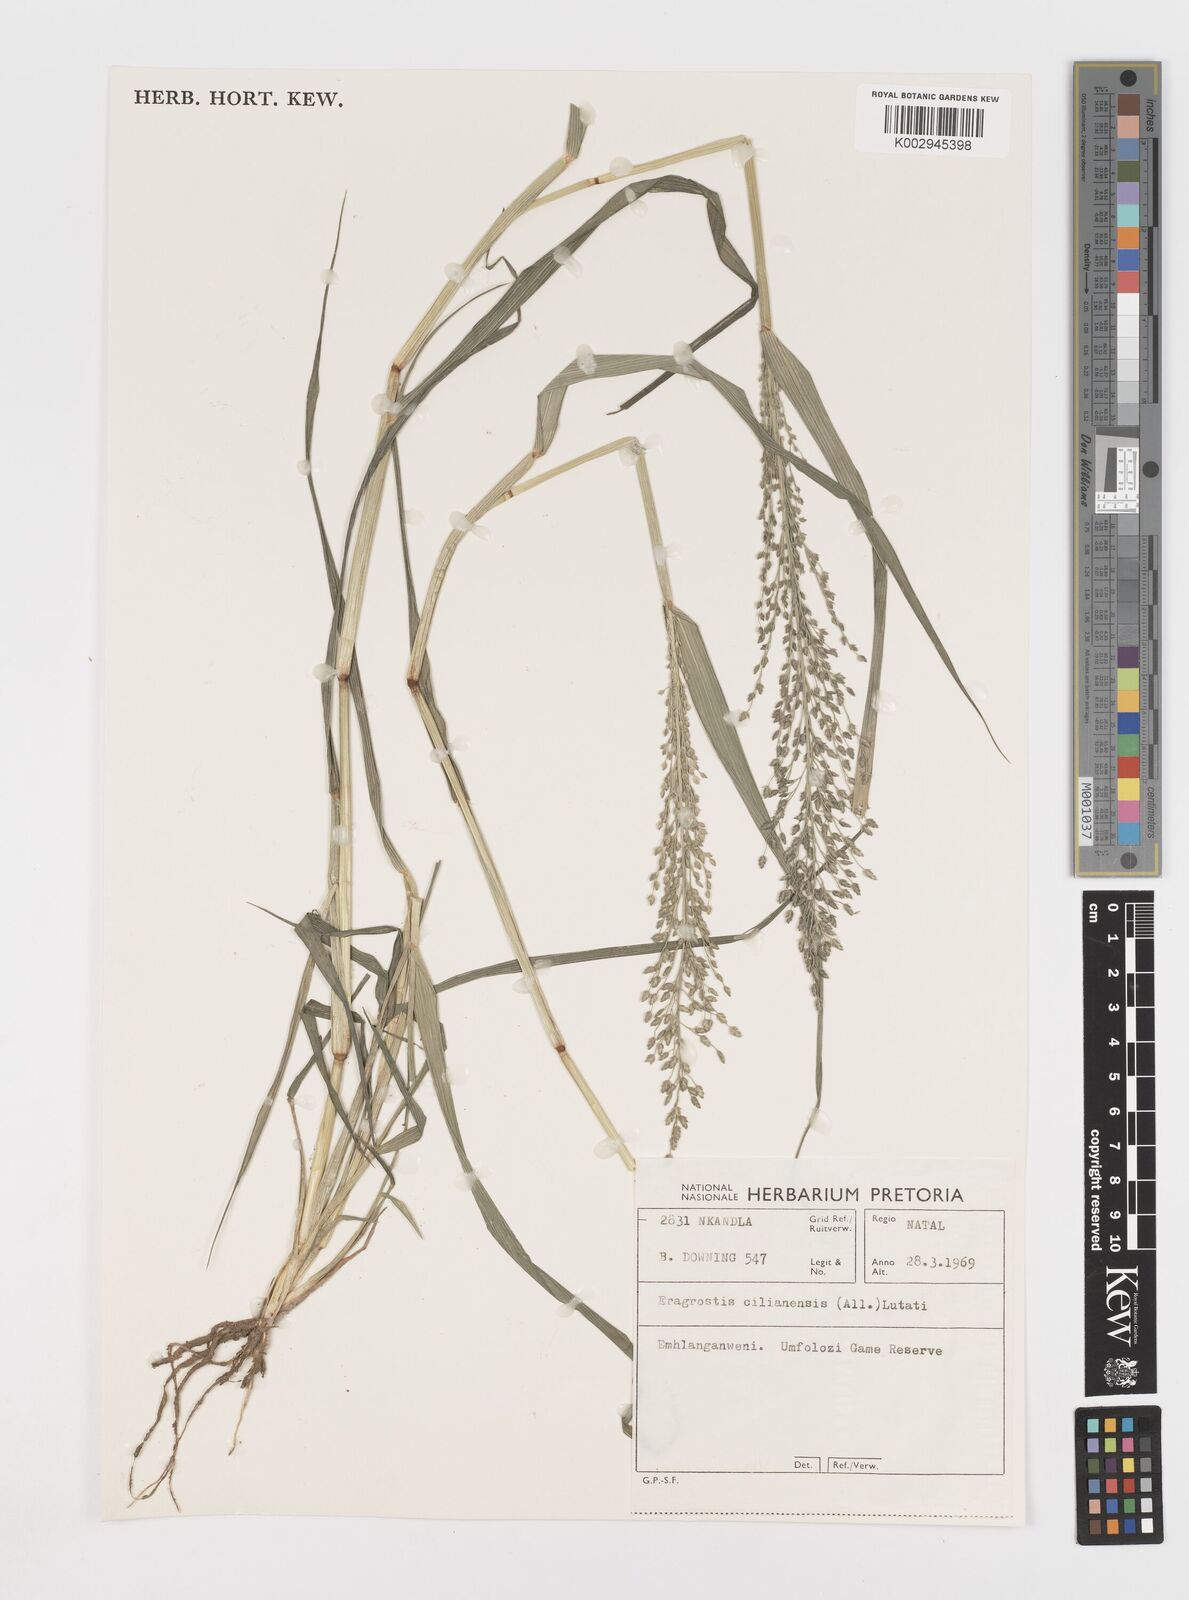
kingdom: Plantae
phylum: Tracheophyta
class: Liliopsida
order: Poales
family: Poaceae
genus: Eragrostis
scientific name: Eragrostis cilianensis
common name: Stinkgrass
